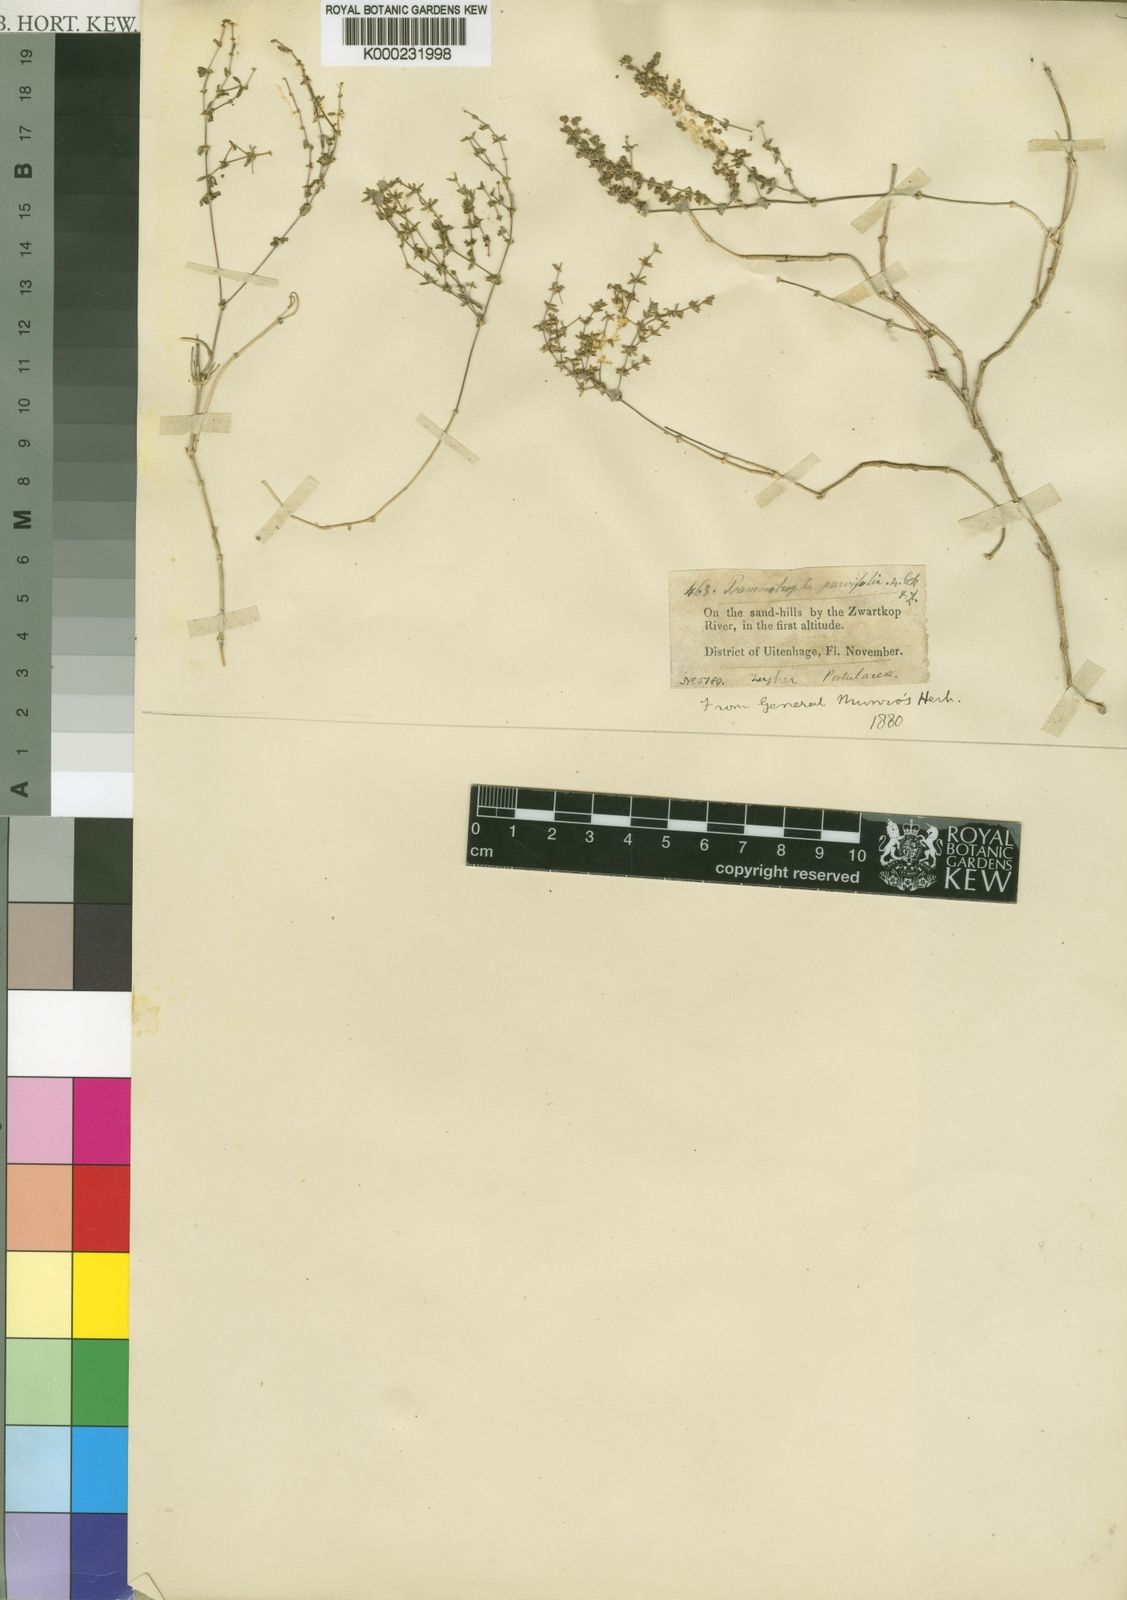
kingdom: Plantae
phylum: Tracheophyta
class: Magnoliopsida
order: Caryophyllales
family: Molluginaceae
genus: Psammotropha
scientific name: Psammotropha marginata
